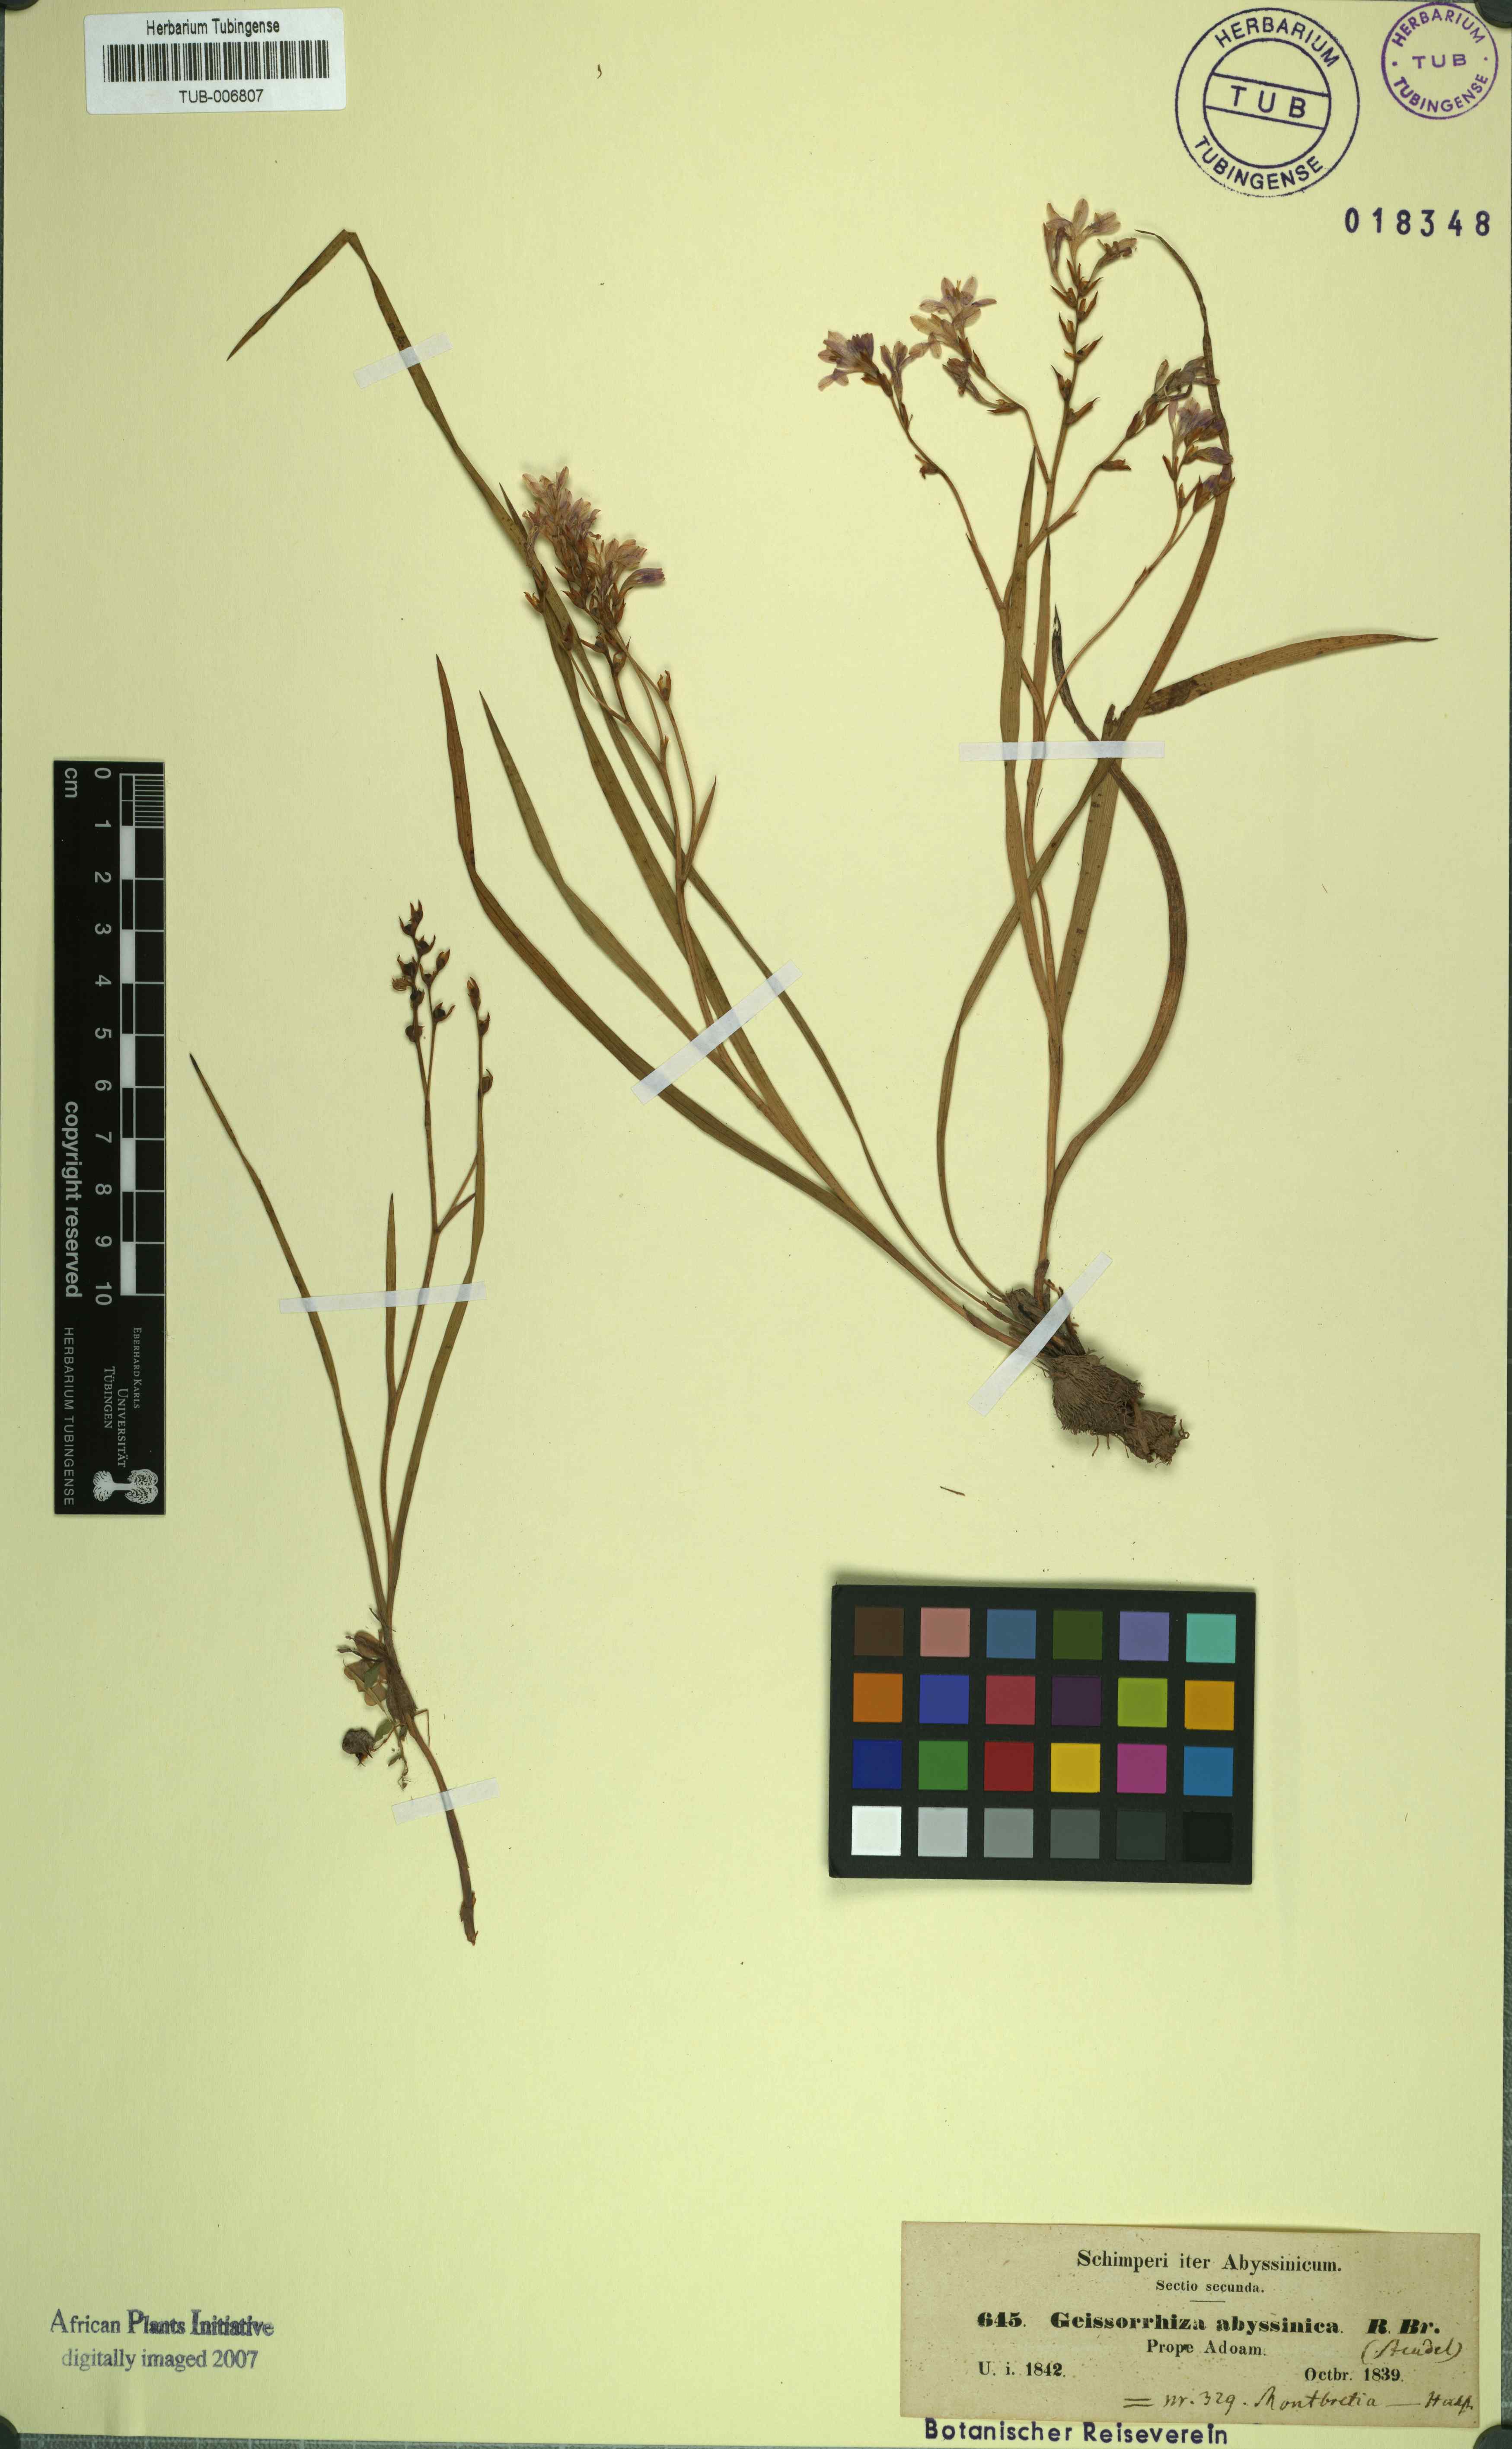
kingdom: Plantae
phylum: Tracheophyta
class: Liliopsida
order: Asparagales
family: Iridaceae
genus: Afrosolen
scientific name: Afrosolen abyssinicus
